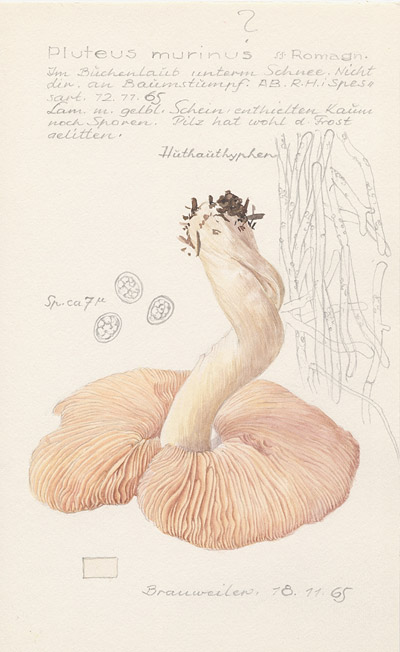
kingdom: Fungi
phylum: Basidiomycota
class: Agaricomycetes
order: Agaricales
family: Pluteaceae
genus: Pluteus
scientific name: Pluteus ephebeus
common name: Sooty shield
